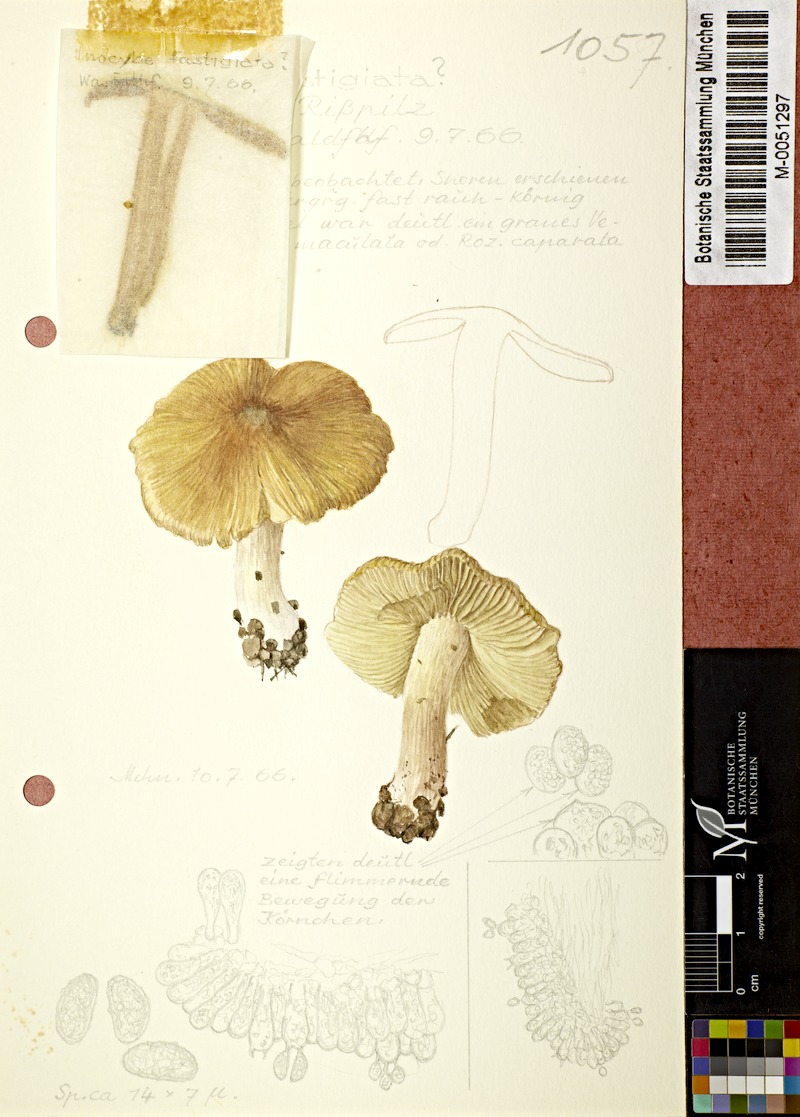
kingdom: Fungi
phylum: Basidiomycota
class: Agaricomycetes
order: Agaricales
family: Inocybaceae
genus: Pseudosperma
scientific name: Pseudosperma rimosum
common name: Split fibrecap
